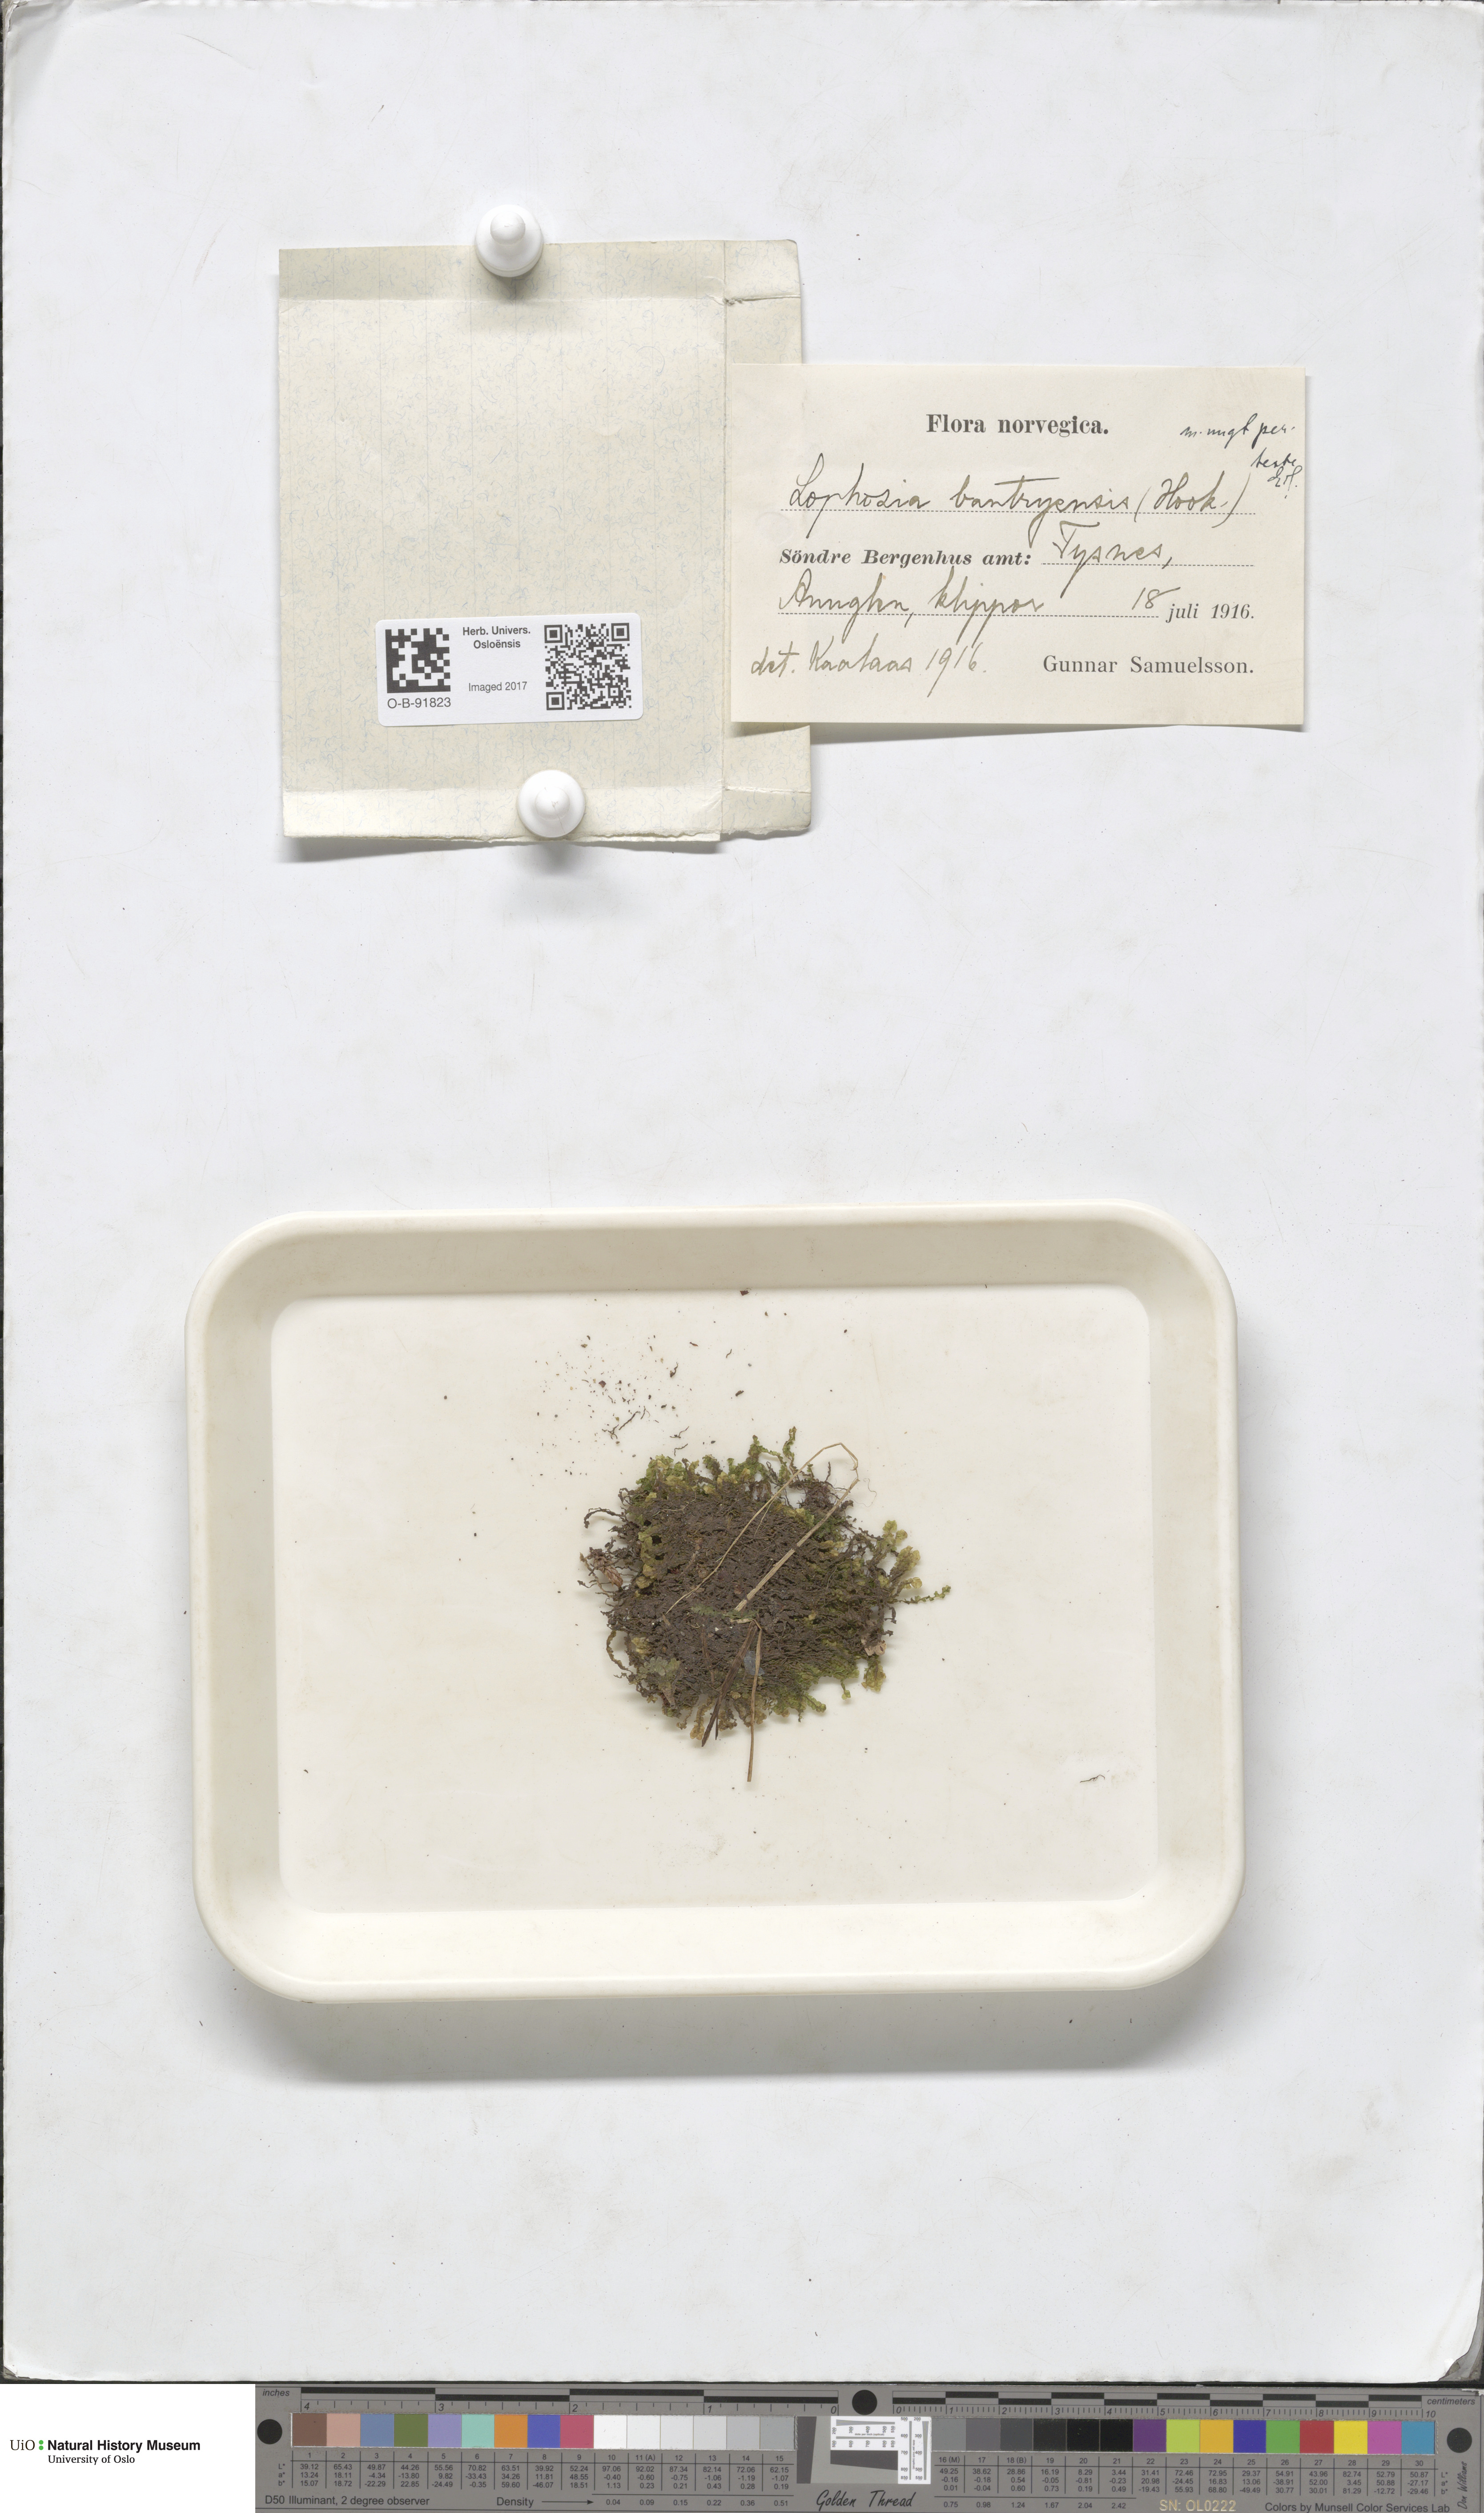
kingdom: Plantae
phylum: Marchantiophyta
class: Jungermanniopsida
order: Jungermanniales
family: Jungermanniaceae
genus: Mesoptychia
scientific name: Mesoptychia bantriensis
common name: Bantry notchwort
